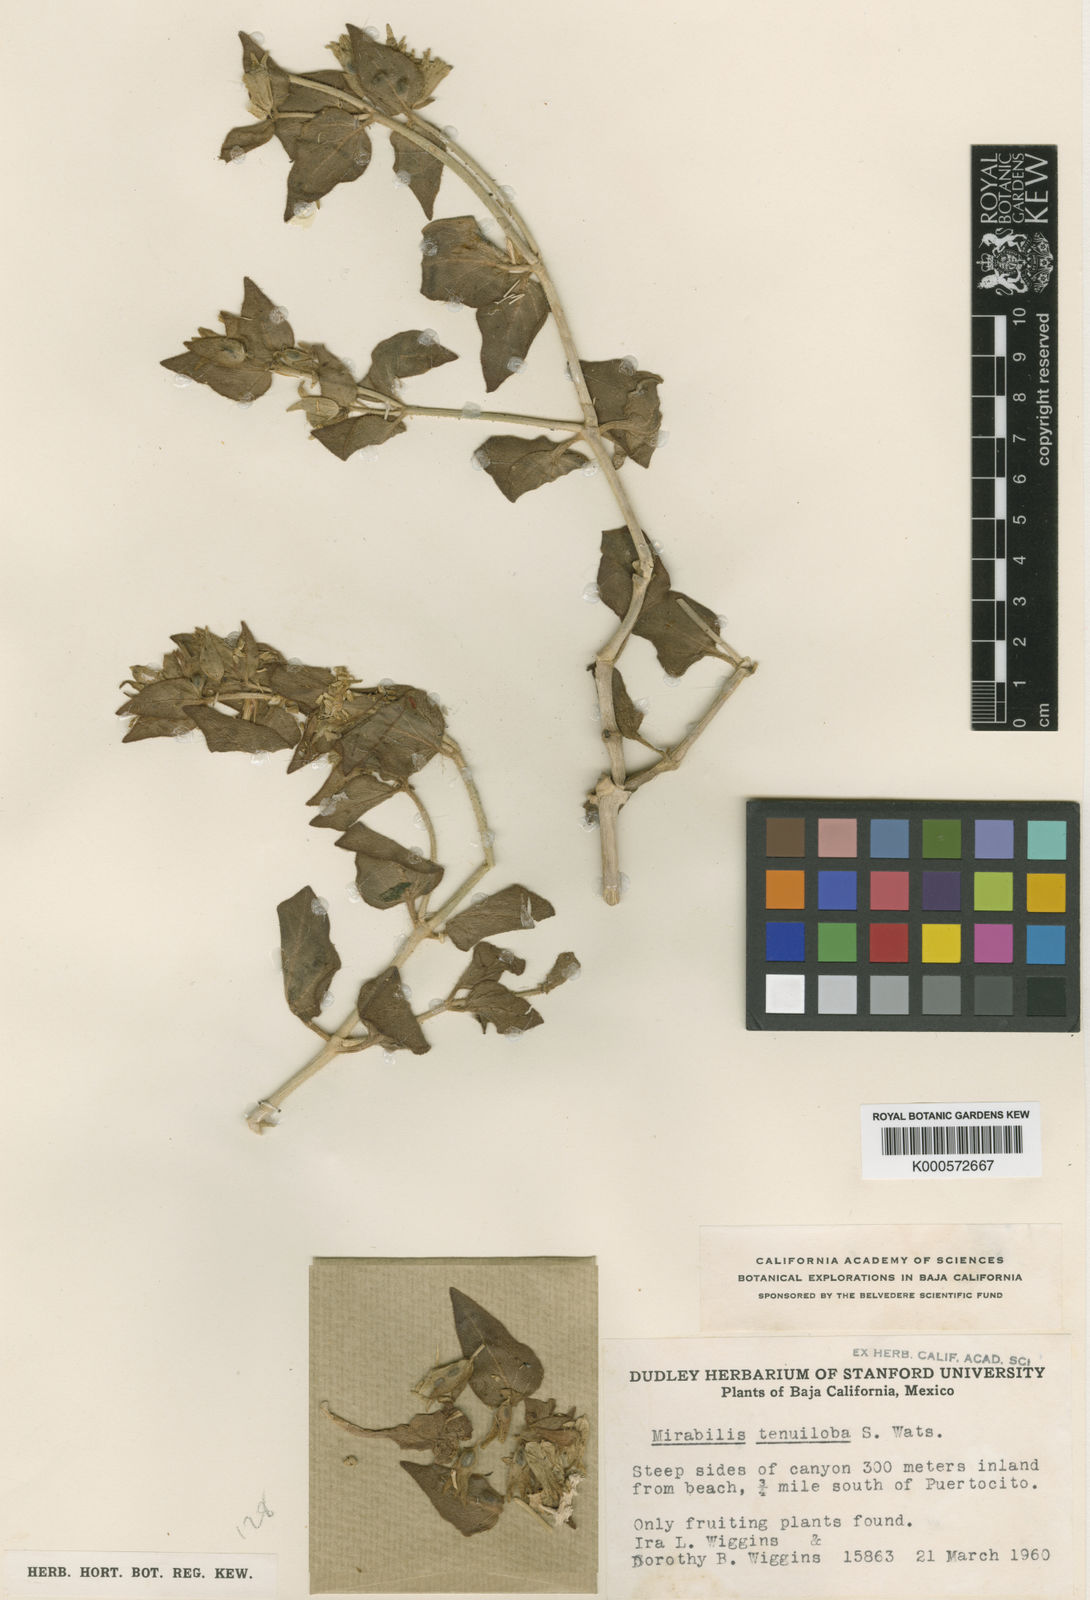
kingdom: Plantae
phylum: Tracheophyta
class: Magnoliopsida
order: Caryophyllales
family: Nyctaginaceae
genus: Mirabilis
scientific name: Mirabilis tenuiloba
